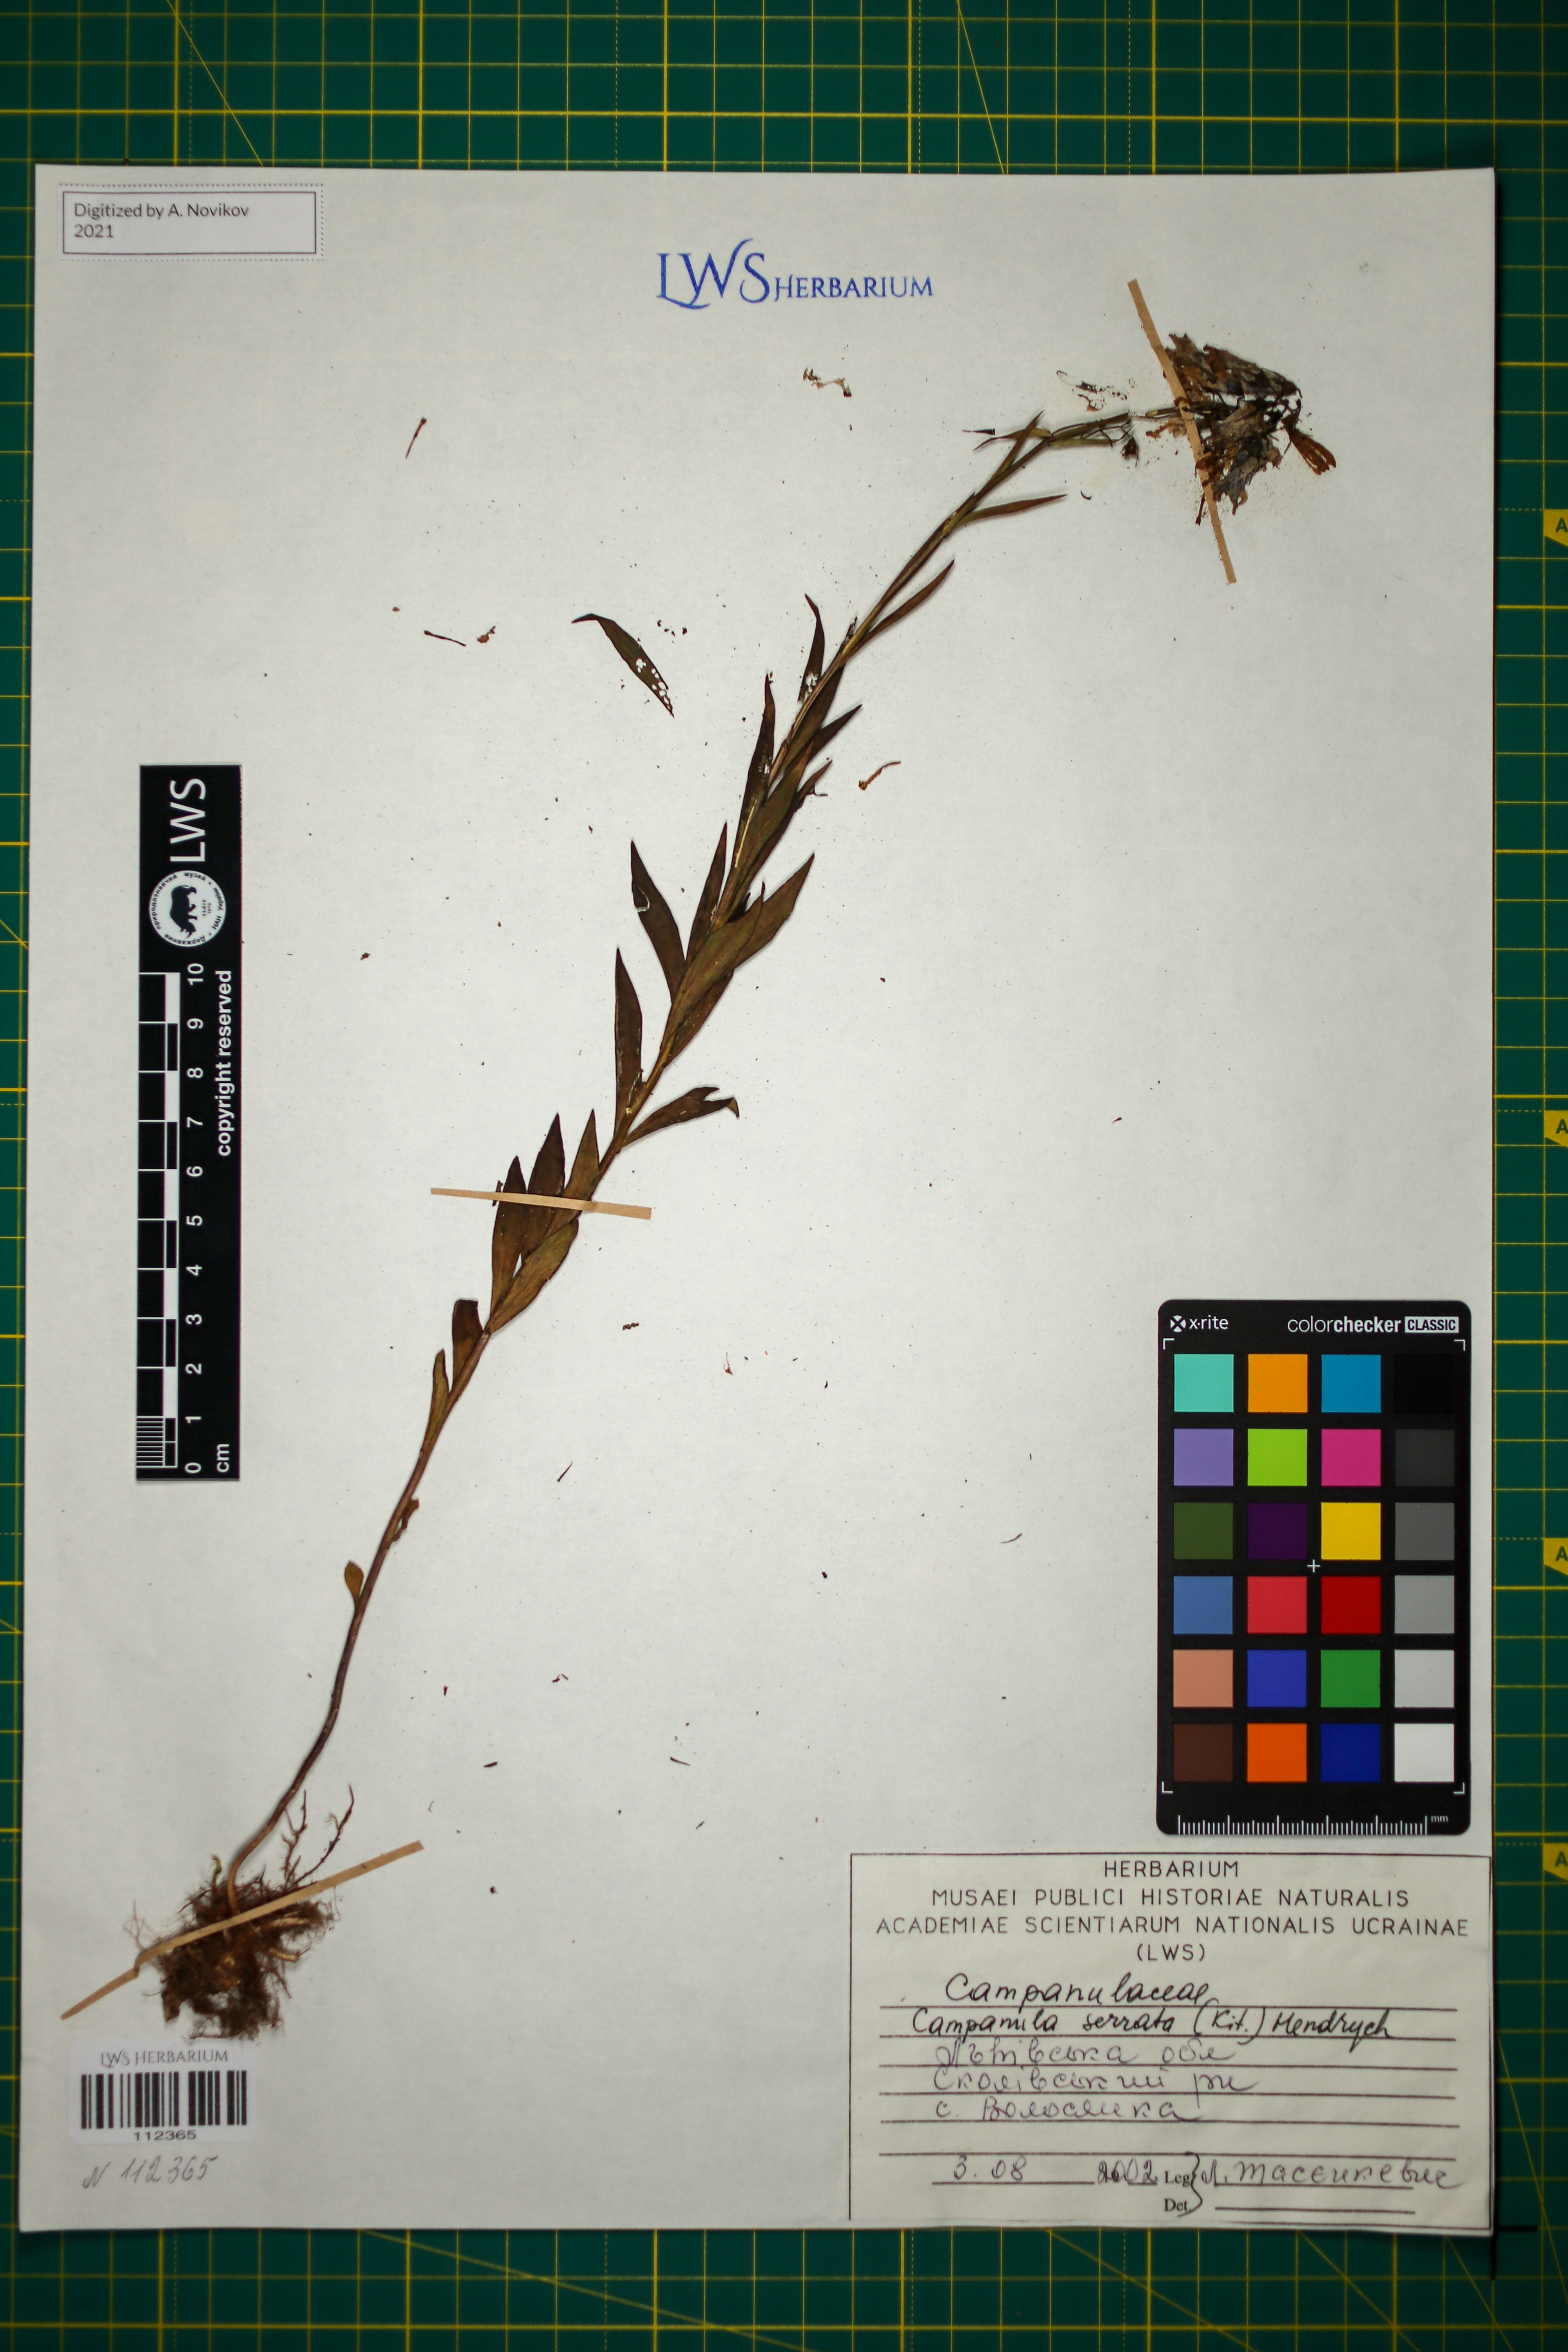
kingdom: Plantae
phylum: Tracheophyta
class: Magnoliopsida
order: Asterales
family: Campanulaceae
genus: Campanula
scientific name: Campanula serrata
